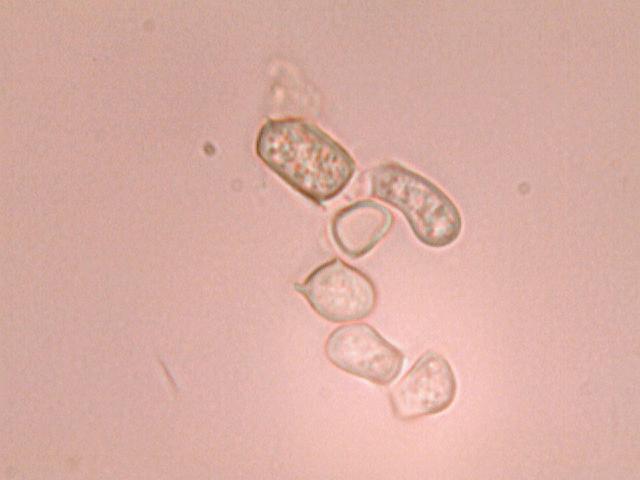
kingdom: Fungi
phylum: Basidiomycota
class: Agaricomycetes
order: Agaricales
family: Tricholomataceae
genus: Cystoderma
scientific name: Cystoderma jasonis
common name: gulkødet grynhat
